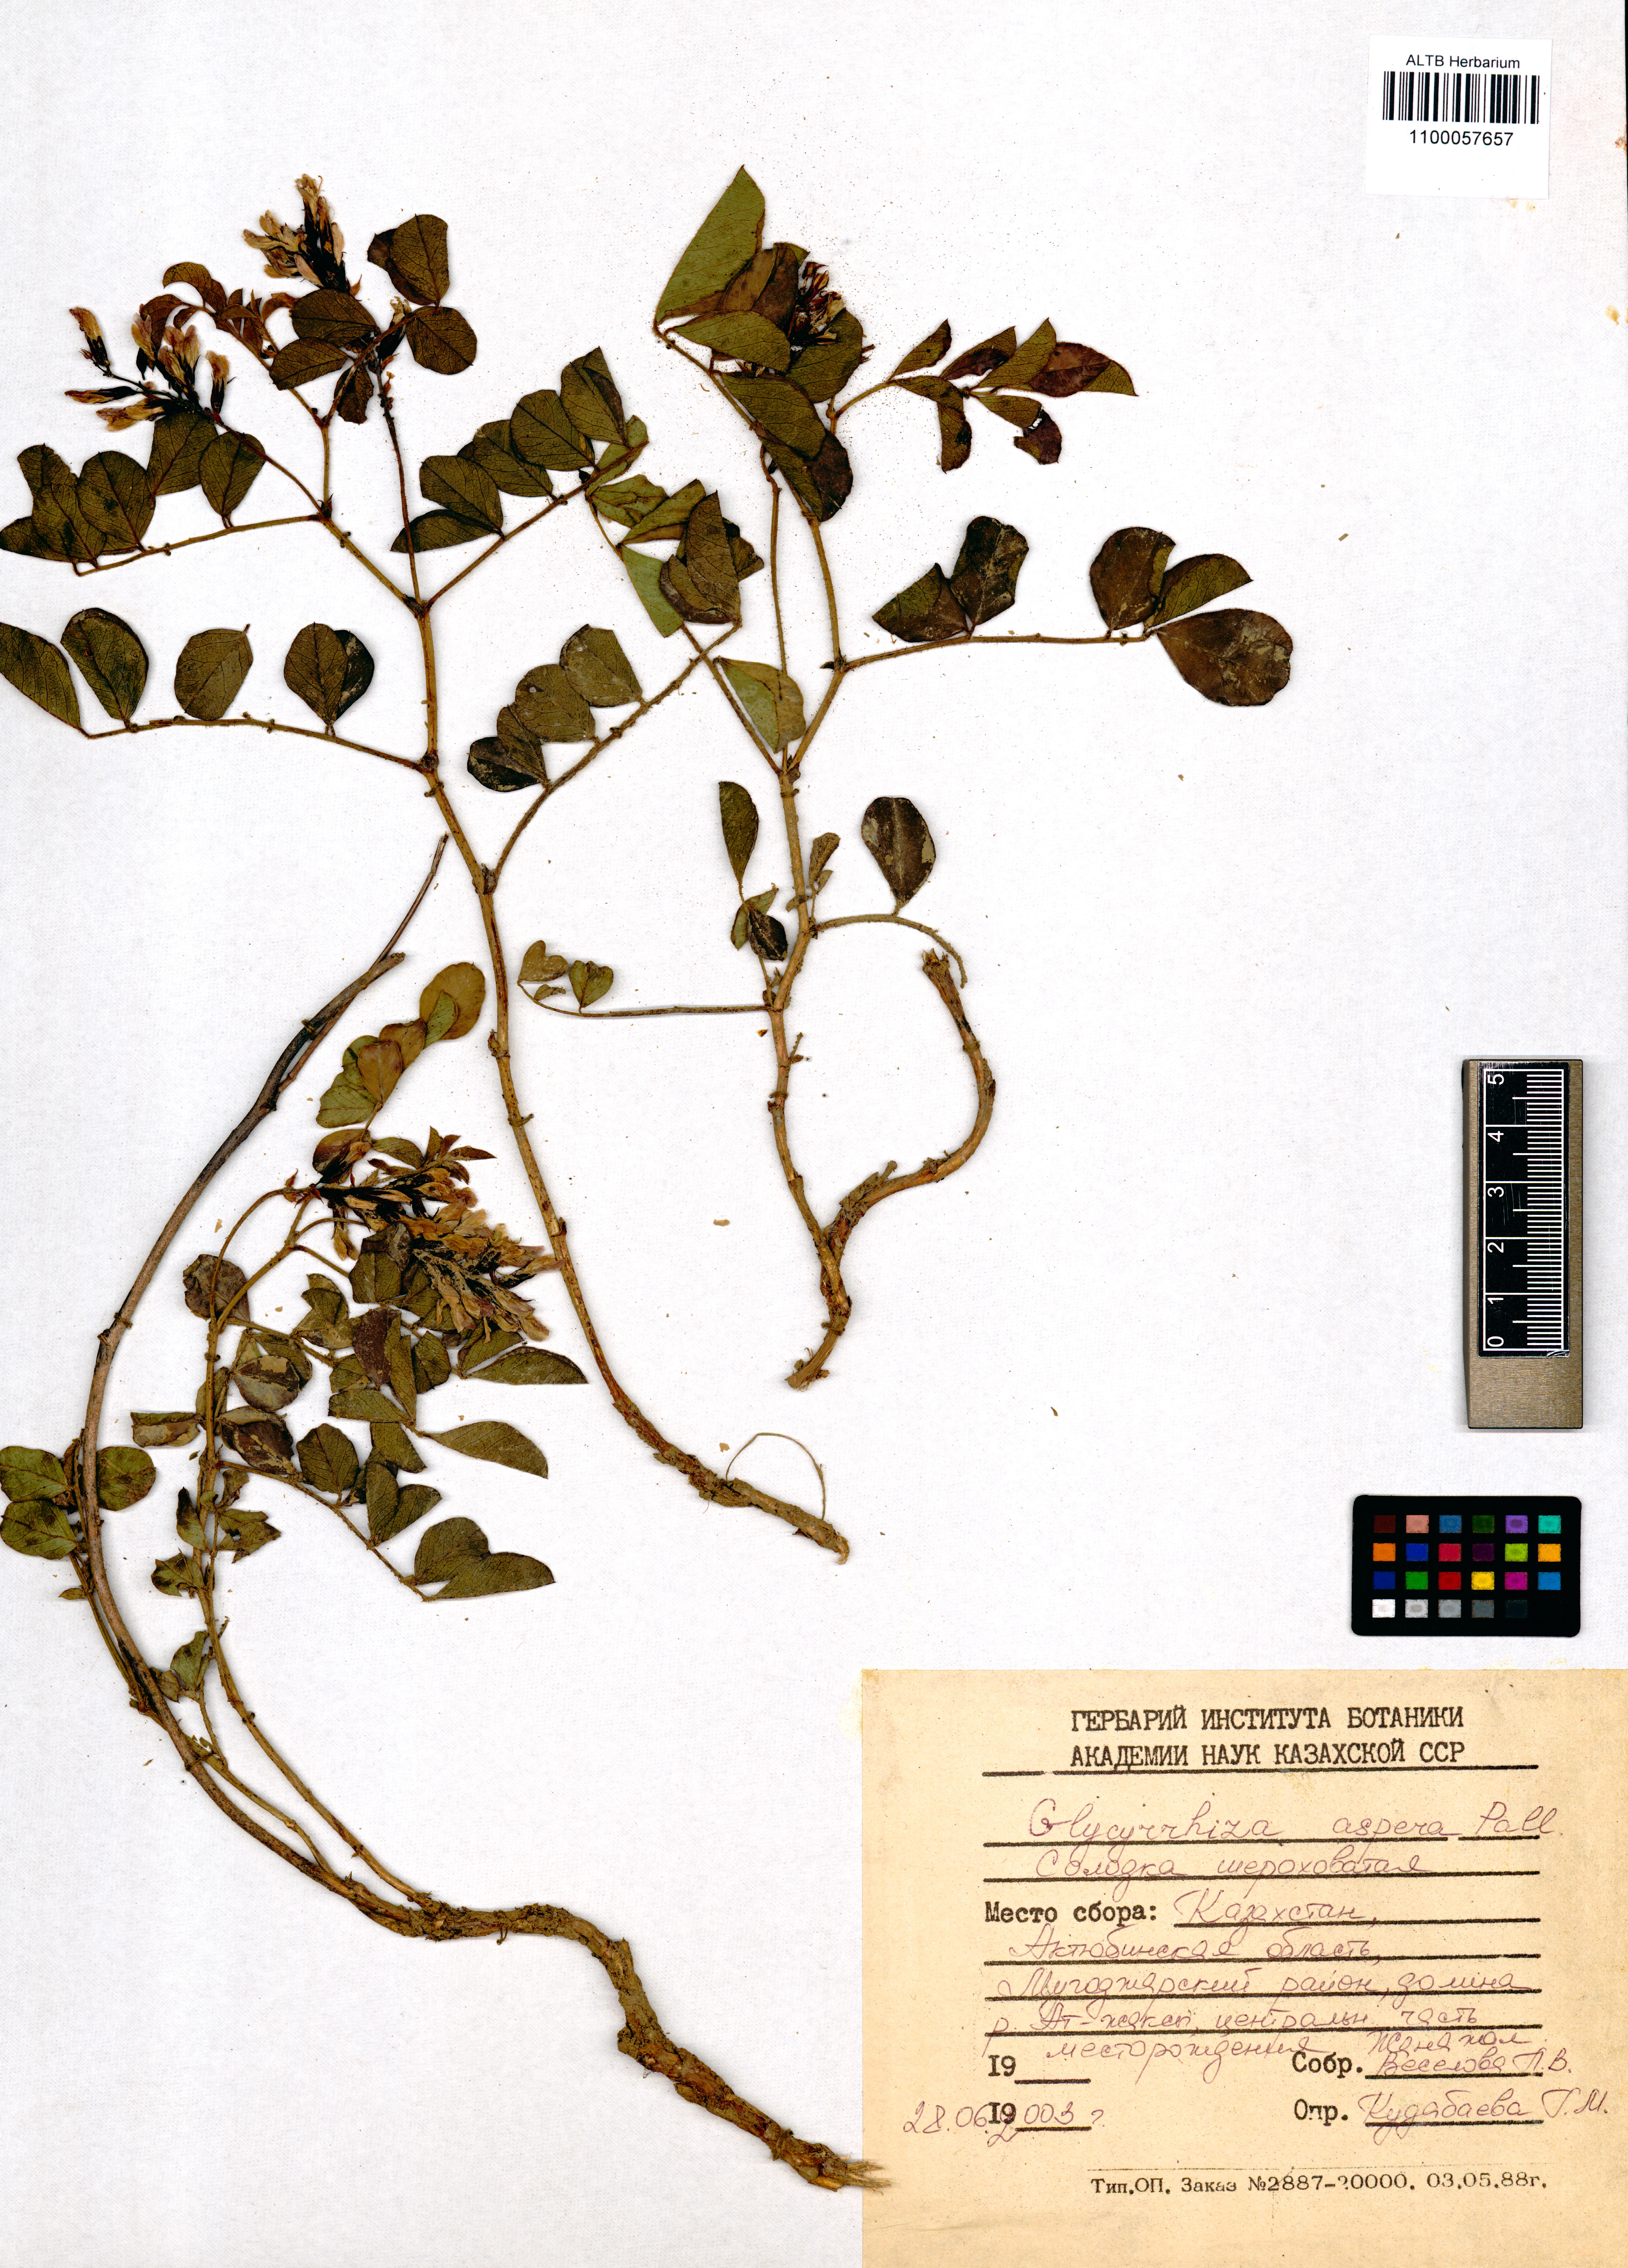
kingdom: Plantae
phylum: Tracheophyta
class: Magnoliopsida
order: Fabales
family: Fabaceae
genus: Glycyrrhiza
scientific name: Glycyrrhiza aspera
